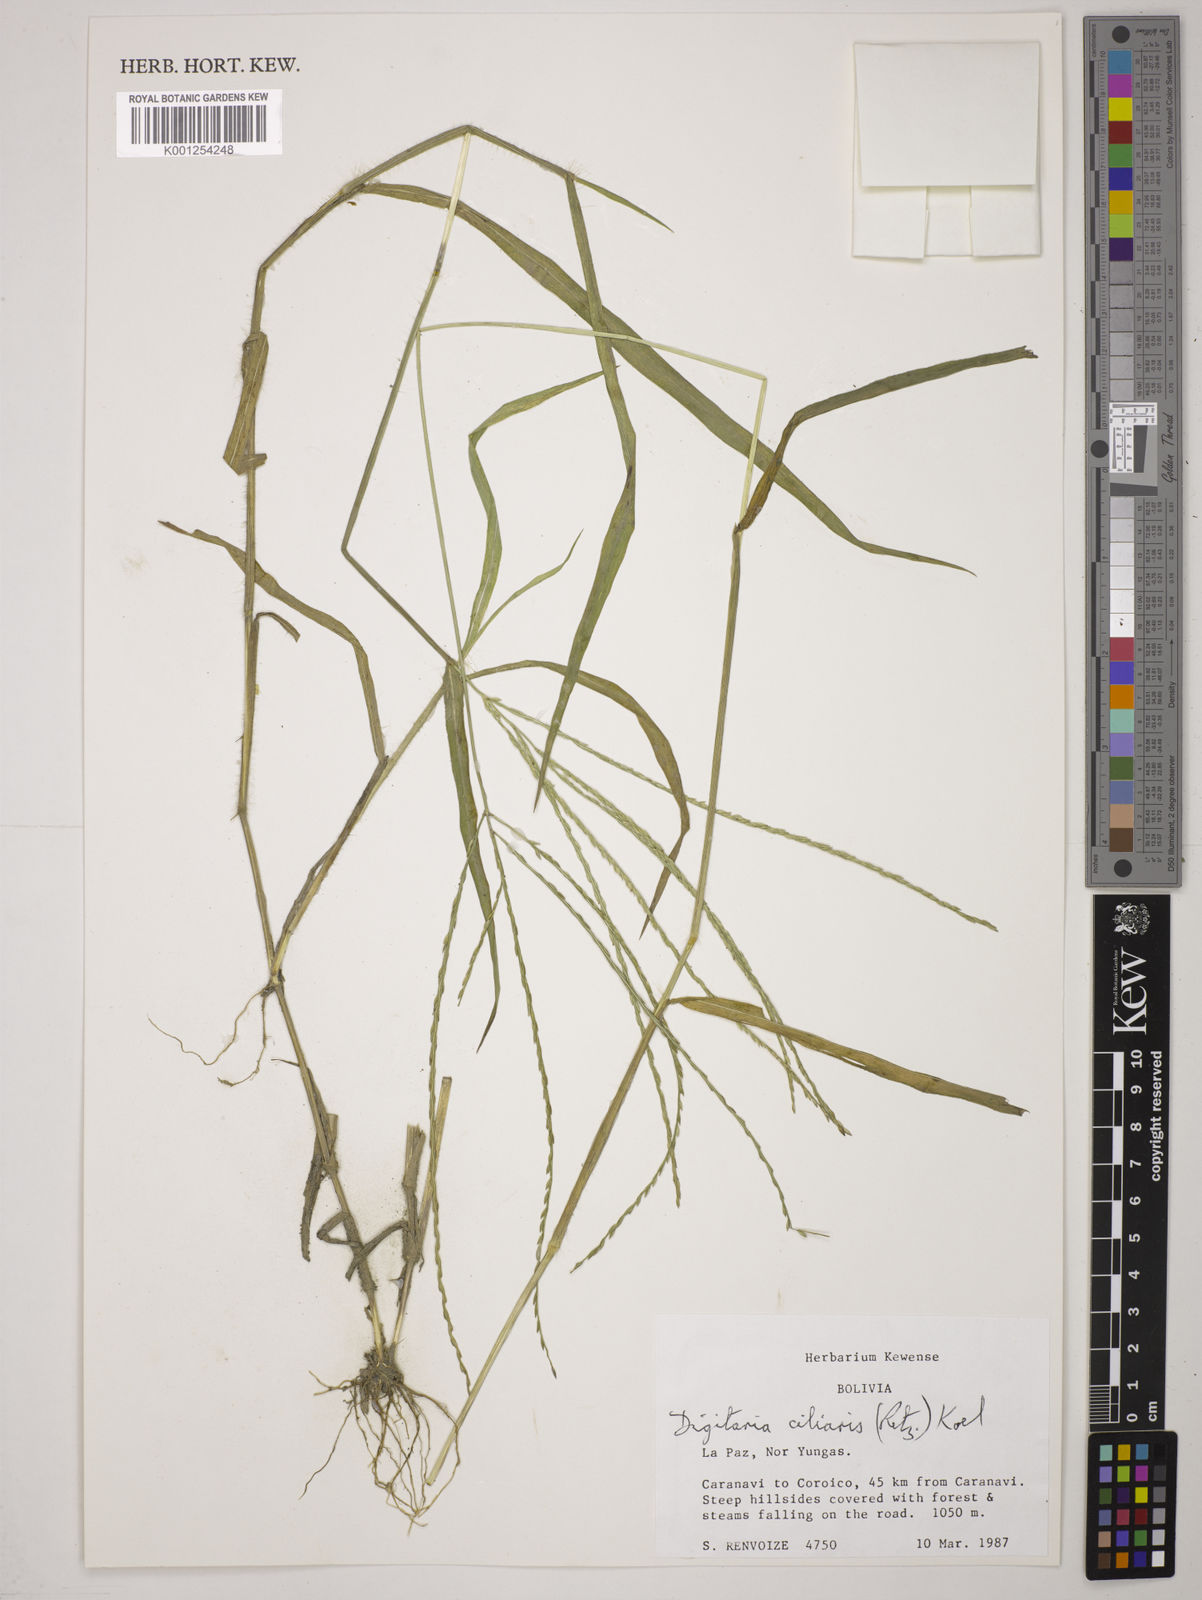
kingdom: Plantae
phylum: Tracheophyta
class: Liliopsida
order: Poales
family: Poaceae
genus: Digitaria
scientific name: Digitaria
